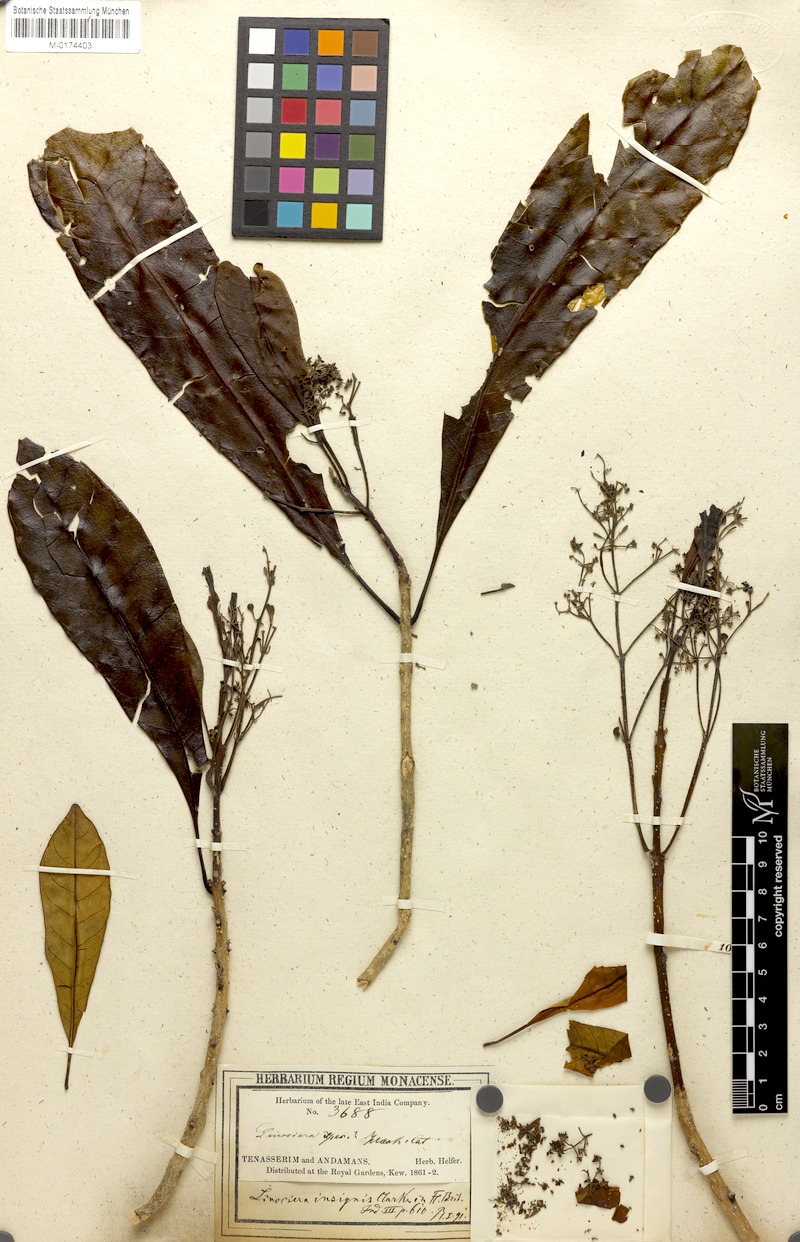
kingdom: Plantae
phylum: Tracheophyta
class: Magnoliopsida
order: Lamiales
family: Oleaceae
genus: Chionanthus
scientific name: Chionanthus macrocarpus
